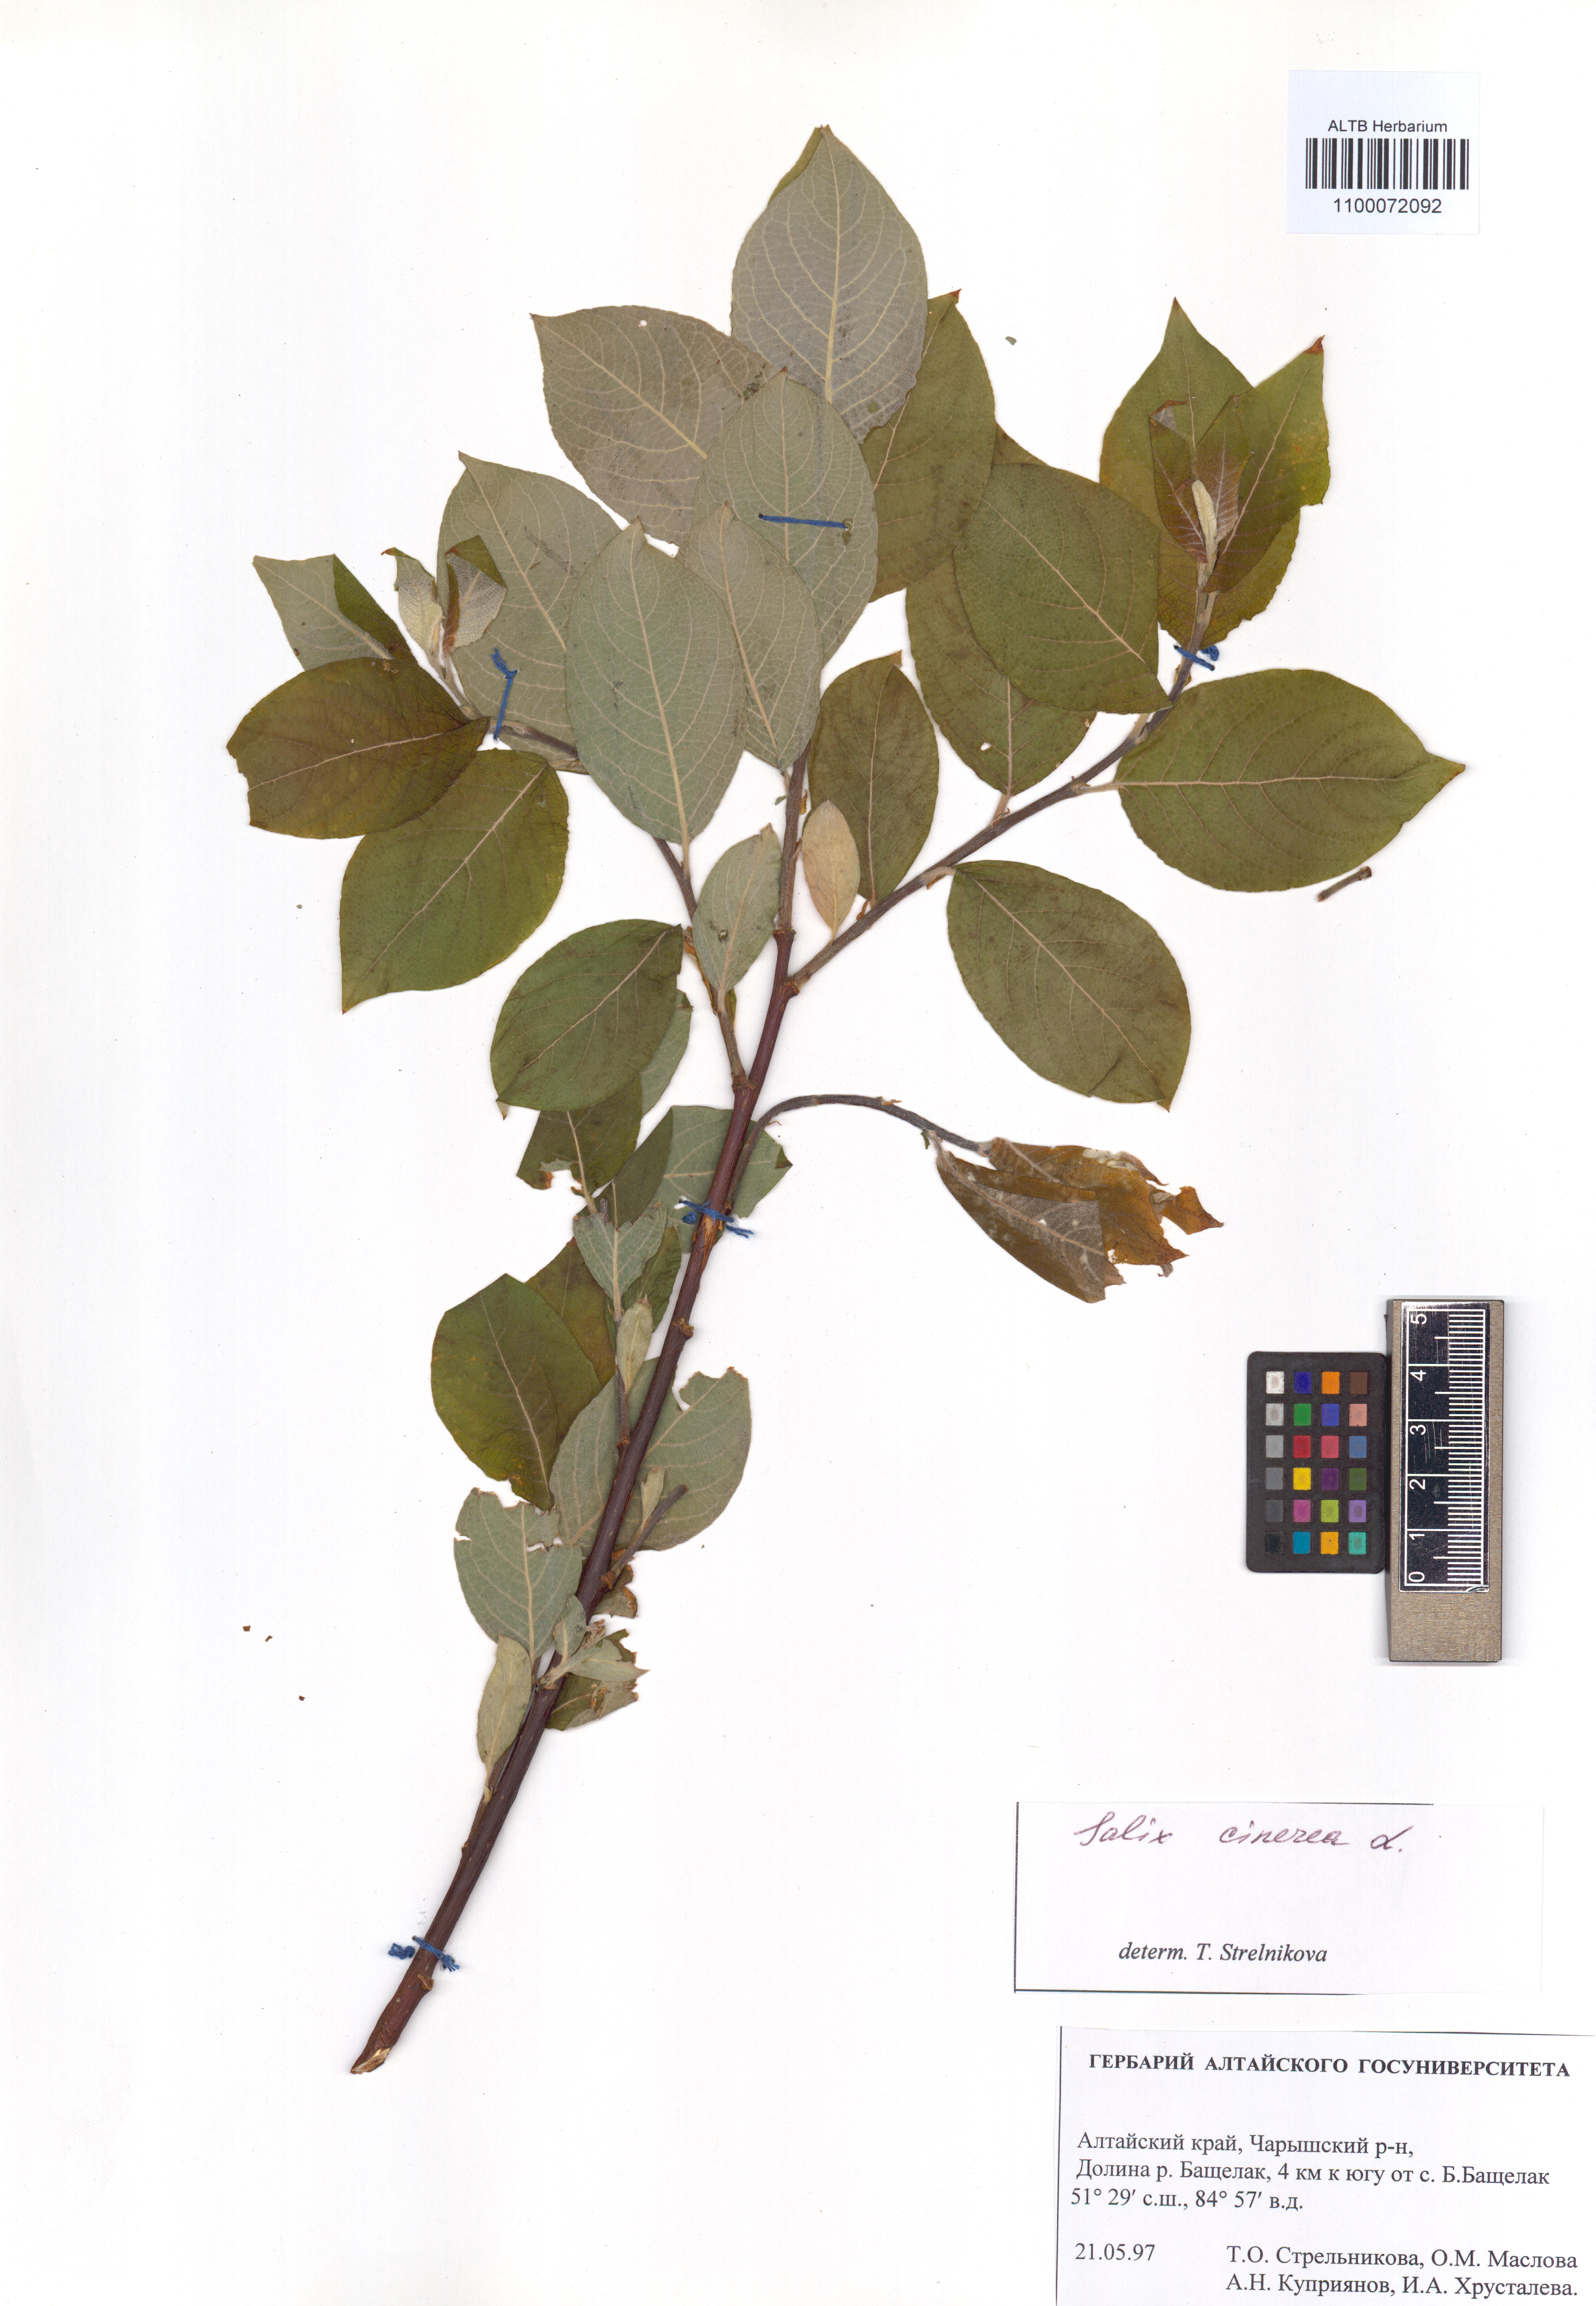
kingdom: Plantae
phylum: Tracheophyta
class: Magnoliopsida
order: Malpighiales
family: Salicaceae
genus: Salix
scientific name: Salix cinerea
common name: Common sallow
